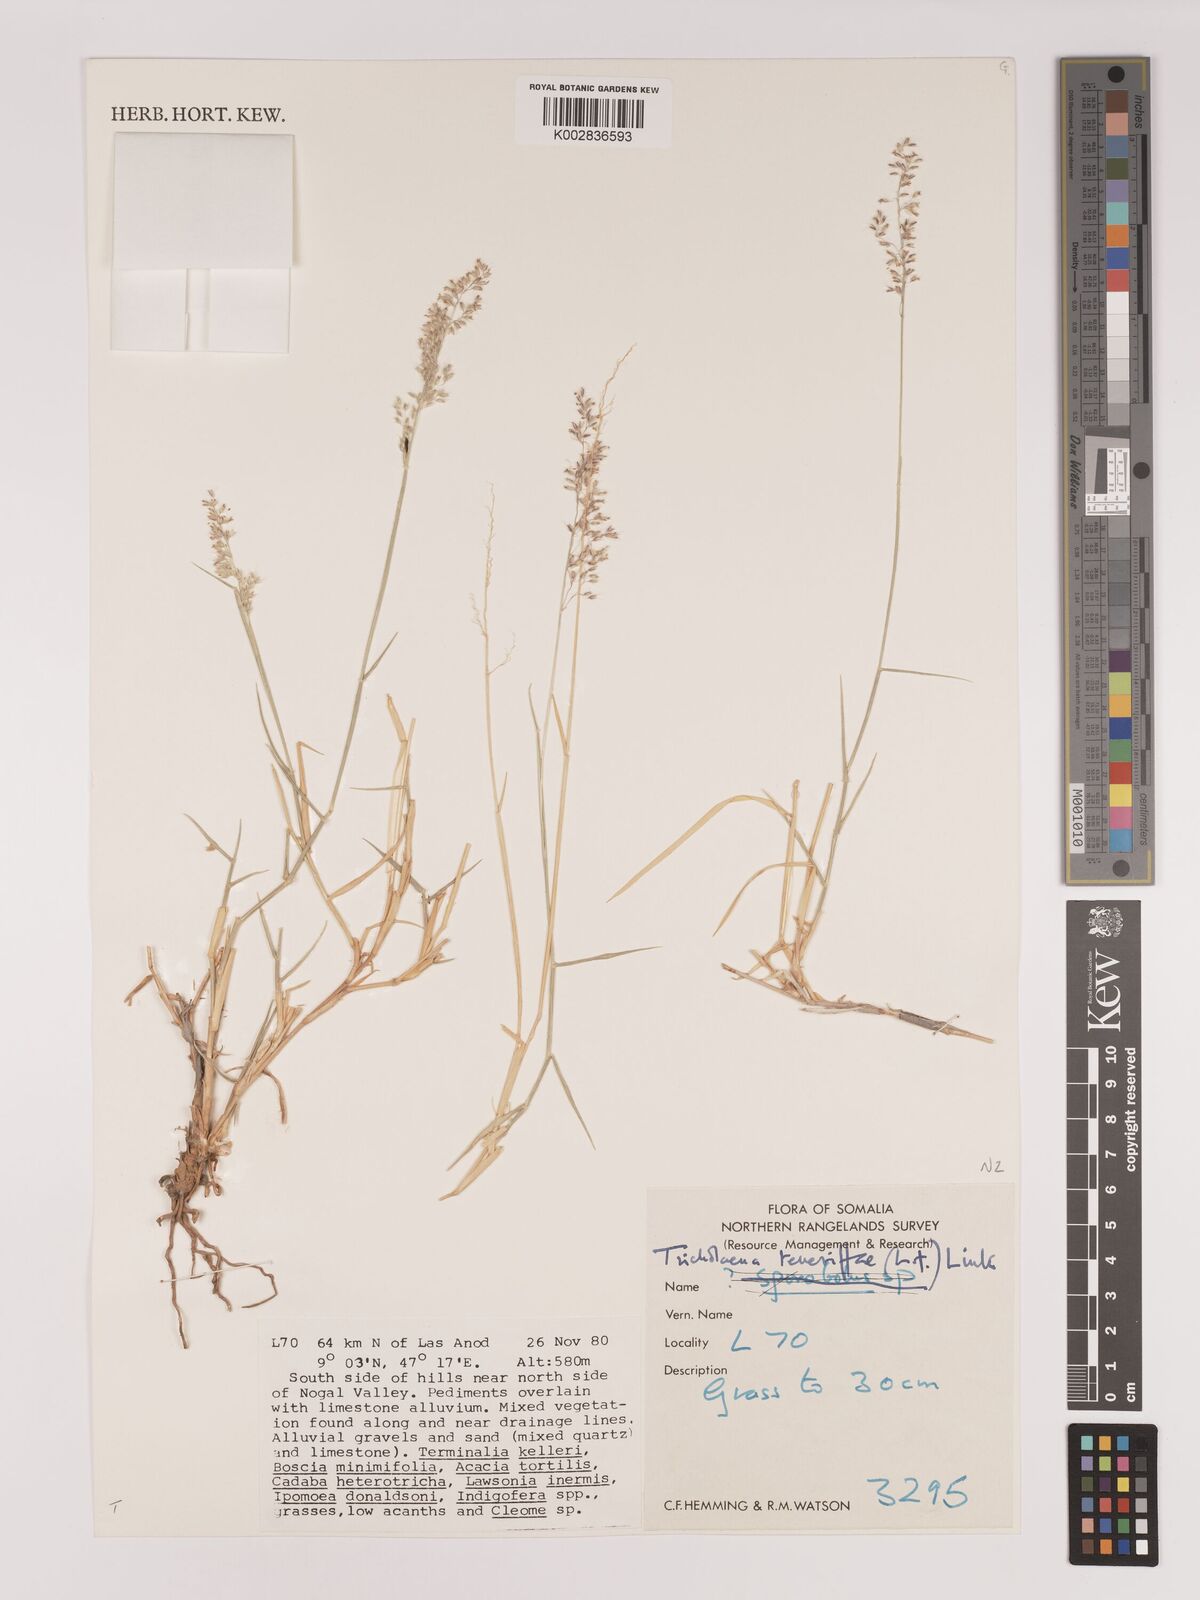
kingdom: Plantae
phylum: Tracheophyta
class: Liliopsida
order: Poales
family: Poaceae
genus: Tricholaena
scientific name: Tricholaena teneriffae
